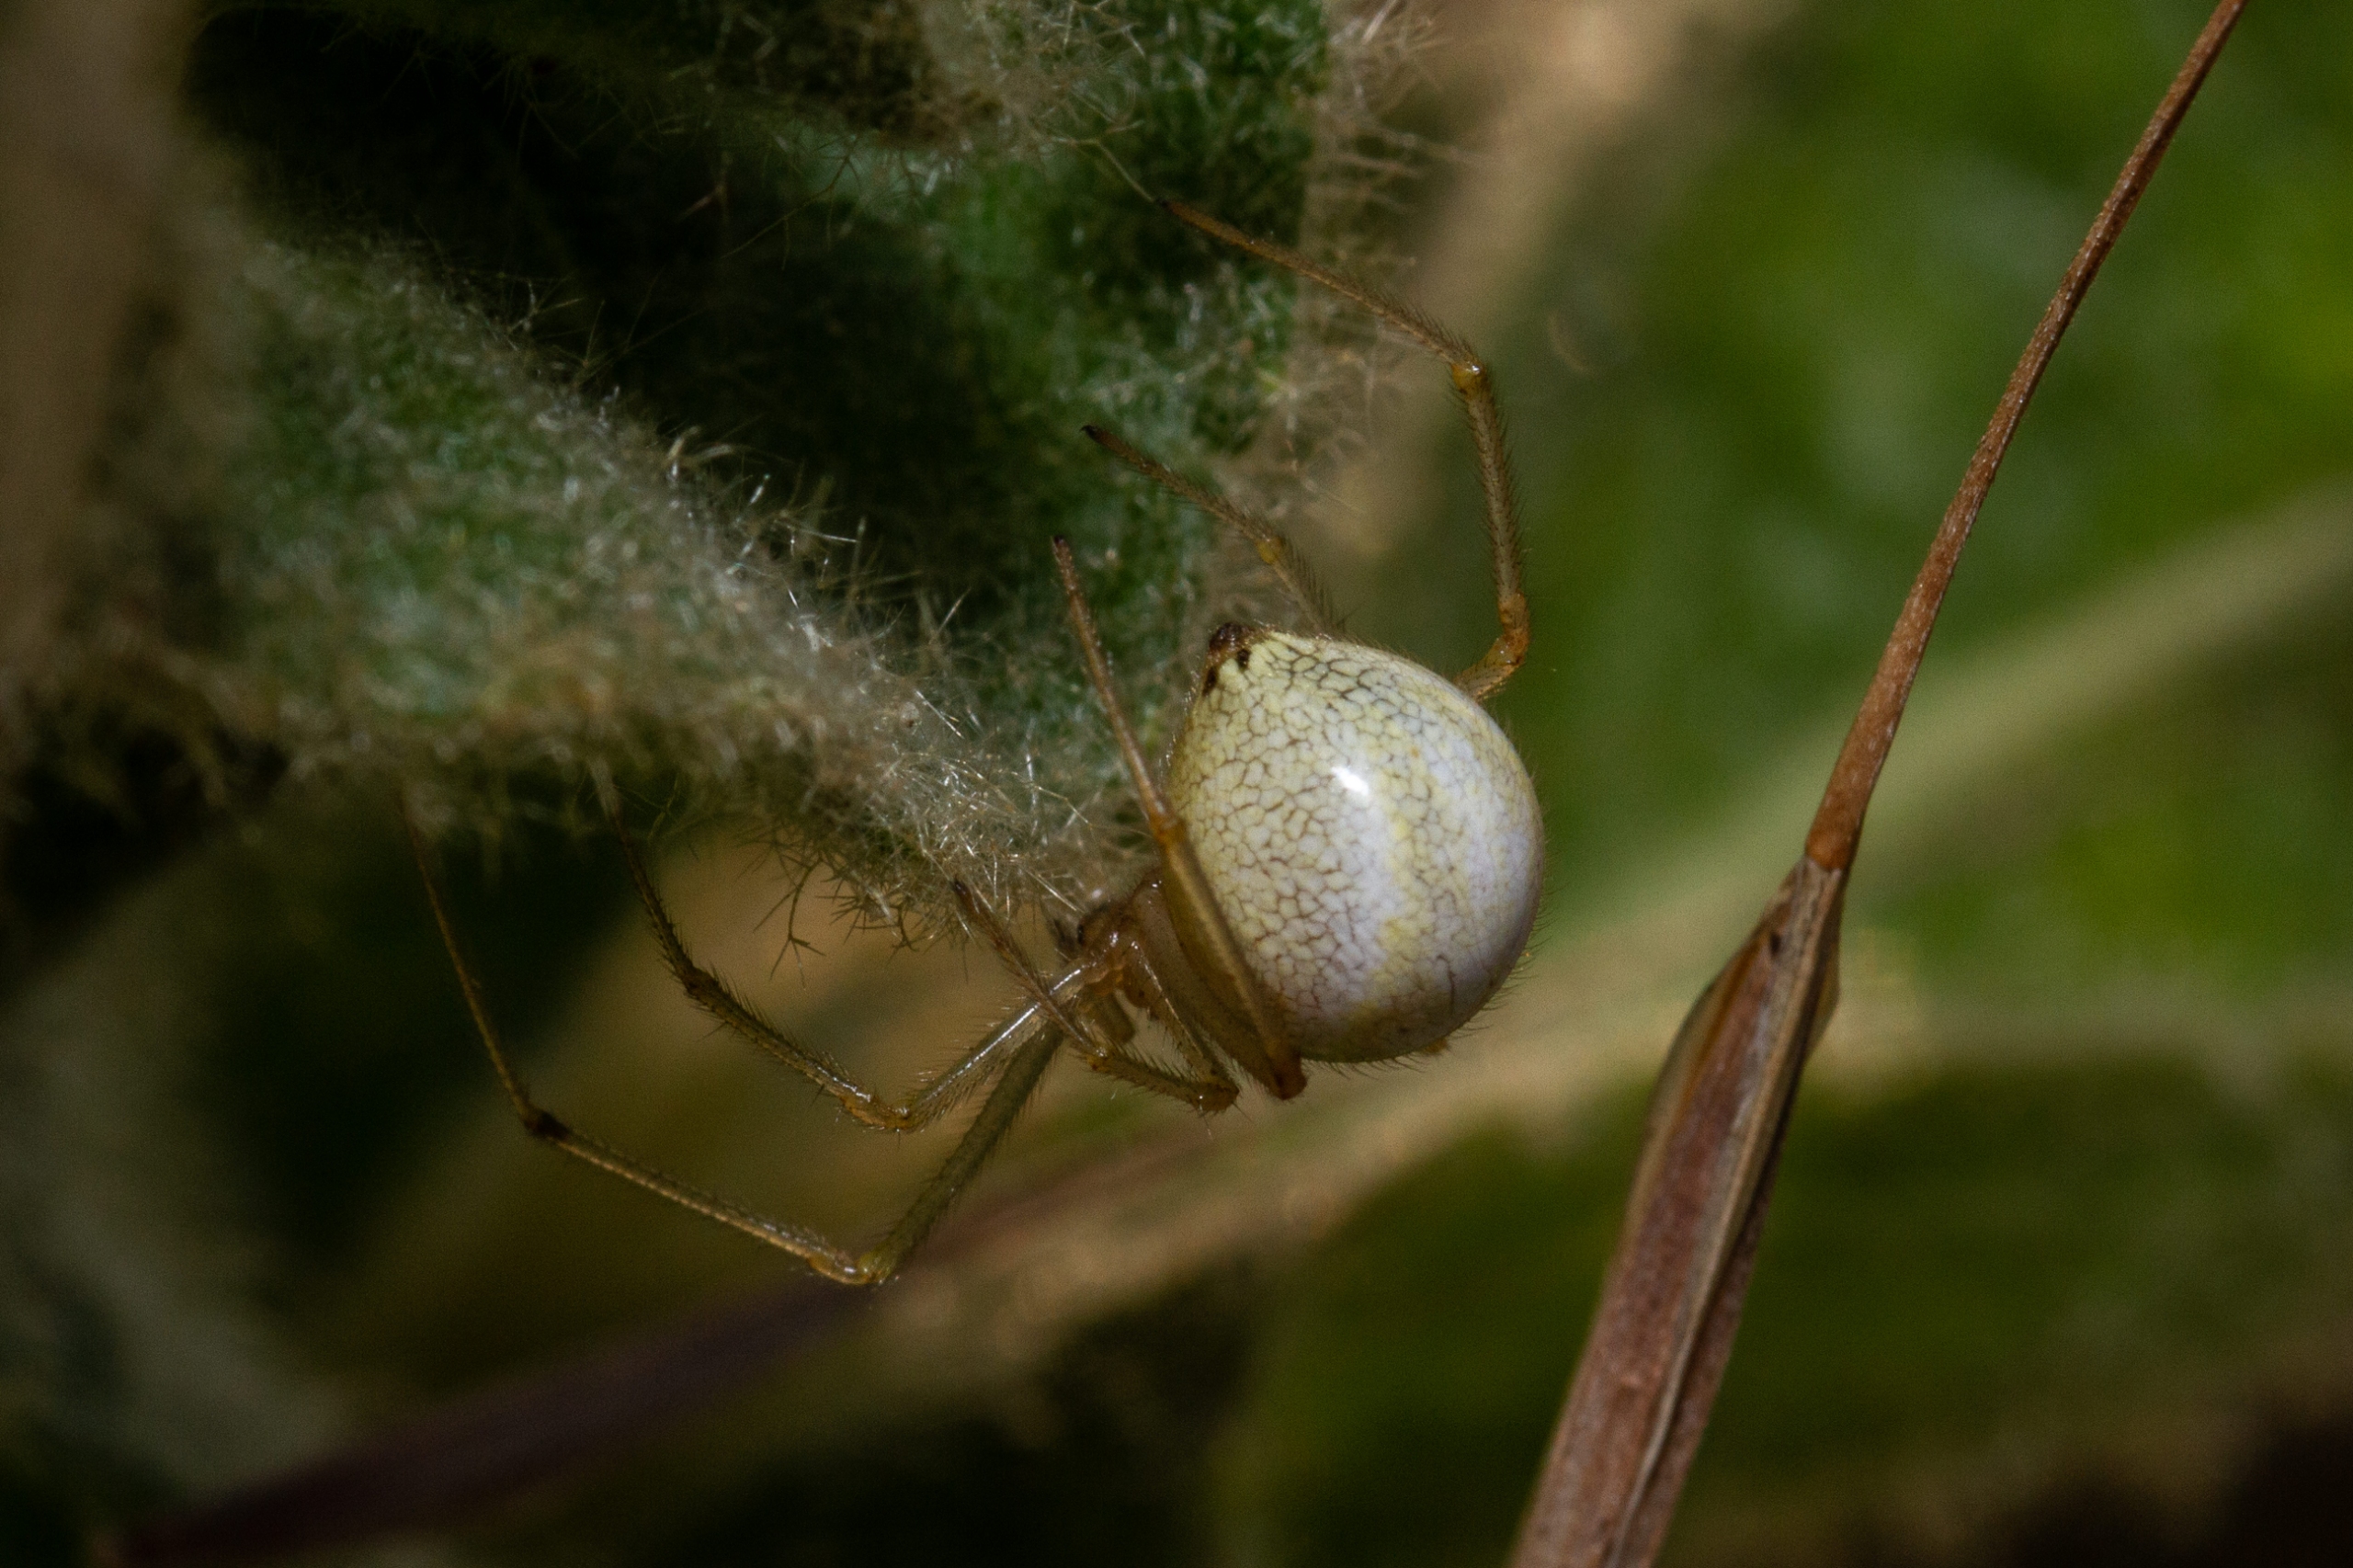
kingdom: Animalia
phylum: Arthropoda
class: Arachnida
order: Araneae
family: Theridiidae
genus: Enoplognatha
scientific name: Enoplognatha
